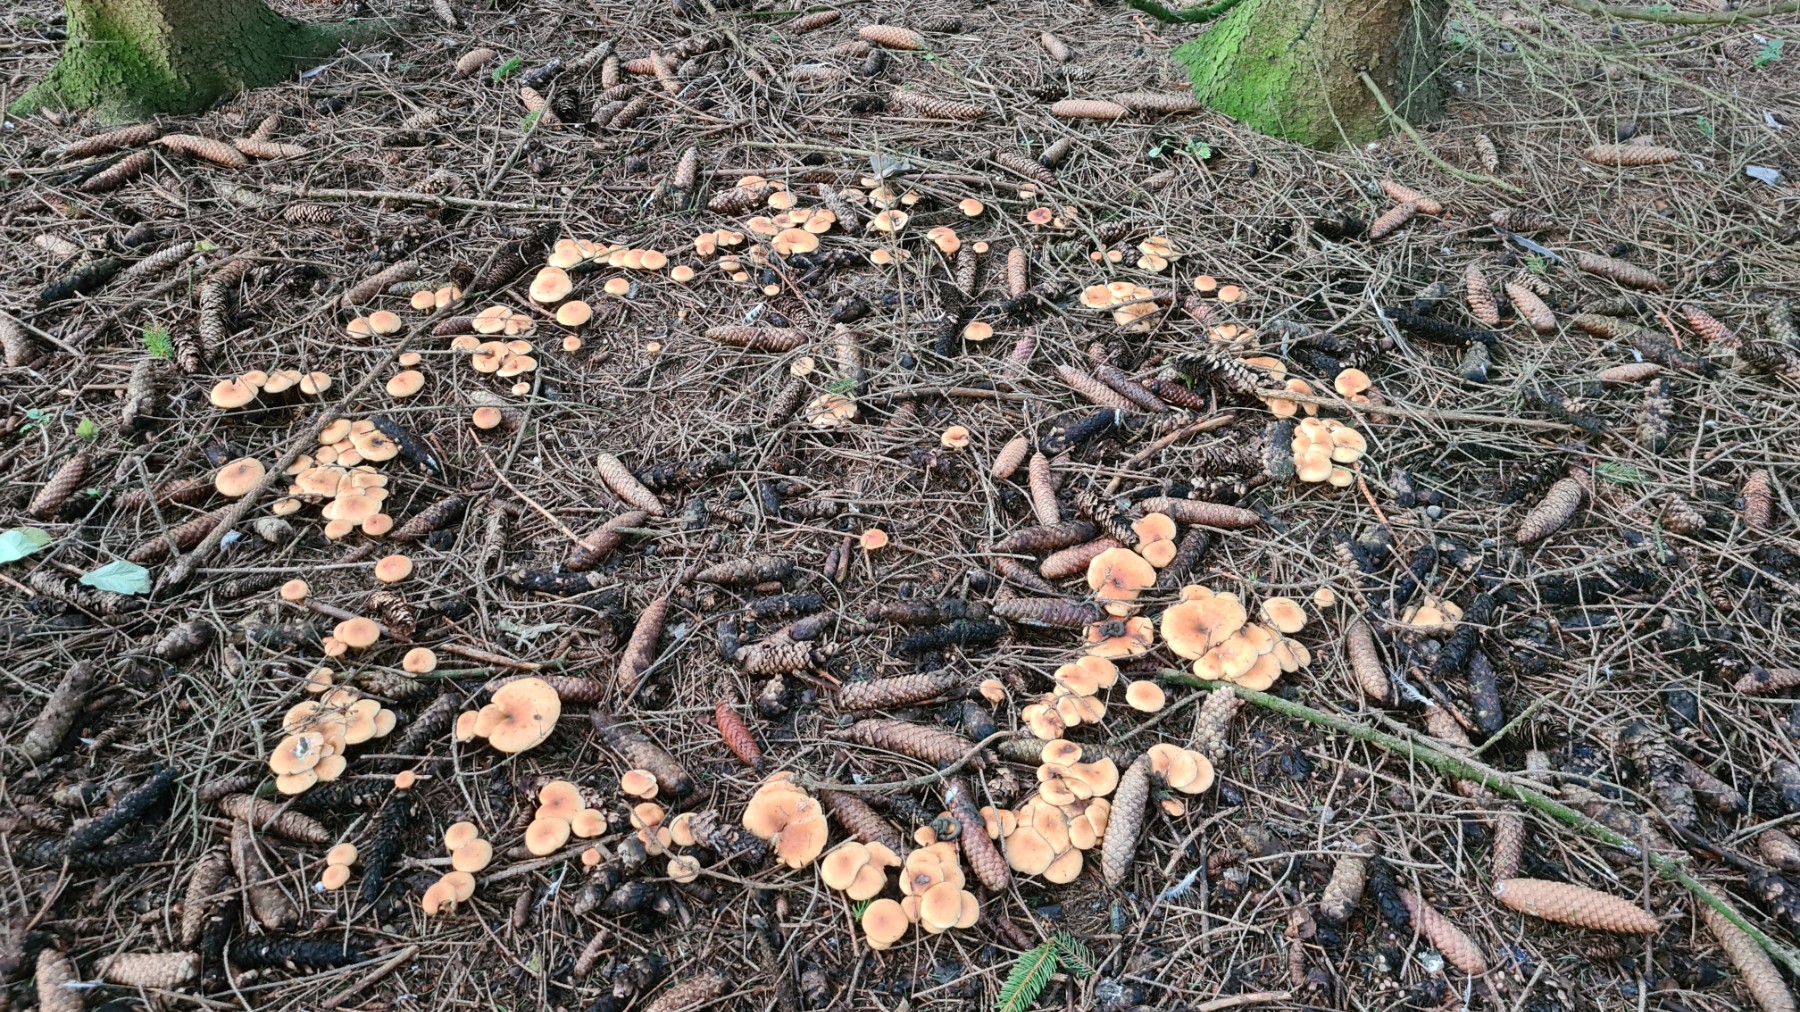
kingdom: Fungi
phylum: Basidiomycota
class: Agaricomycetes
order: Agaricales
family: Tricholomataceae
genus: Paralepista
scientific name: Paralepista flaccida
